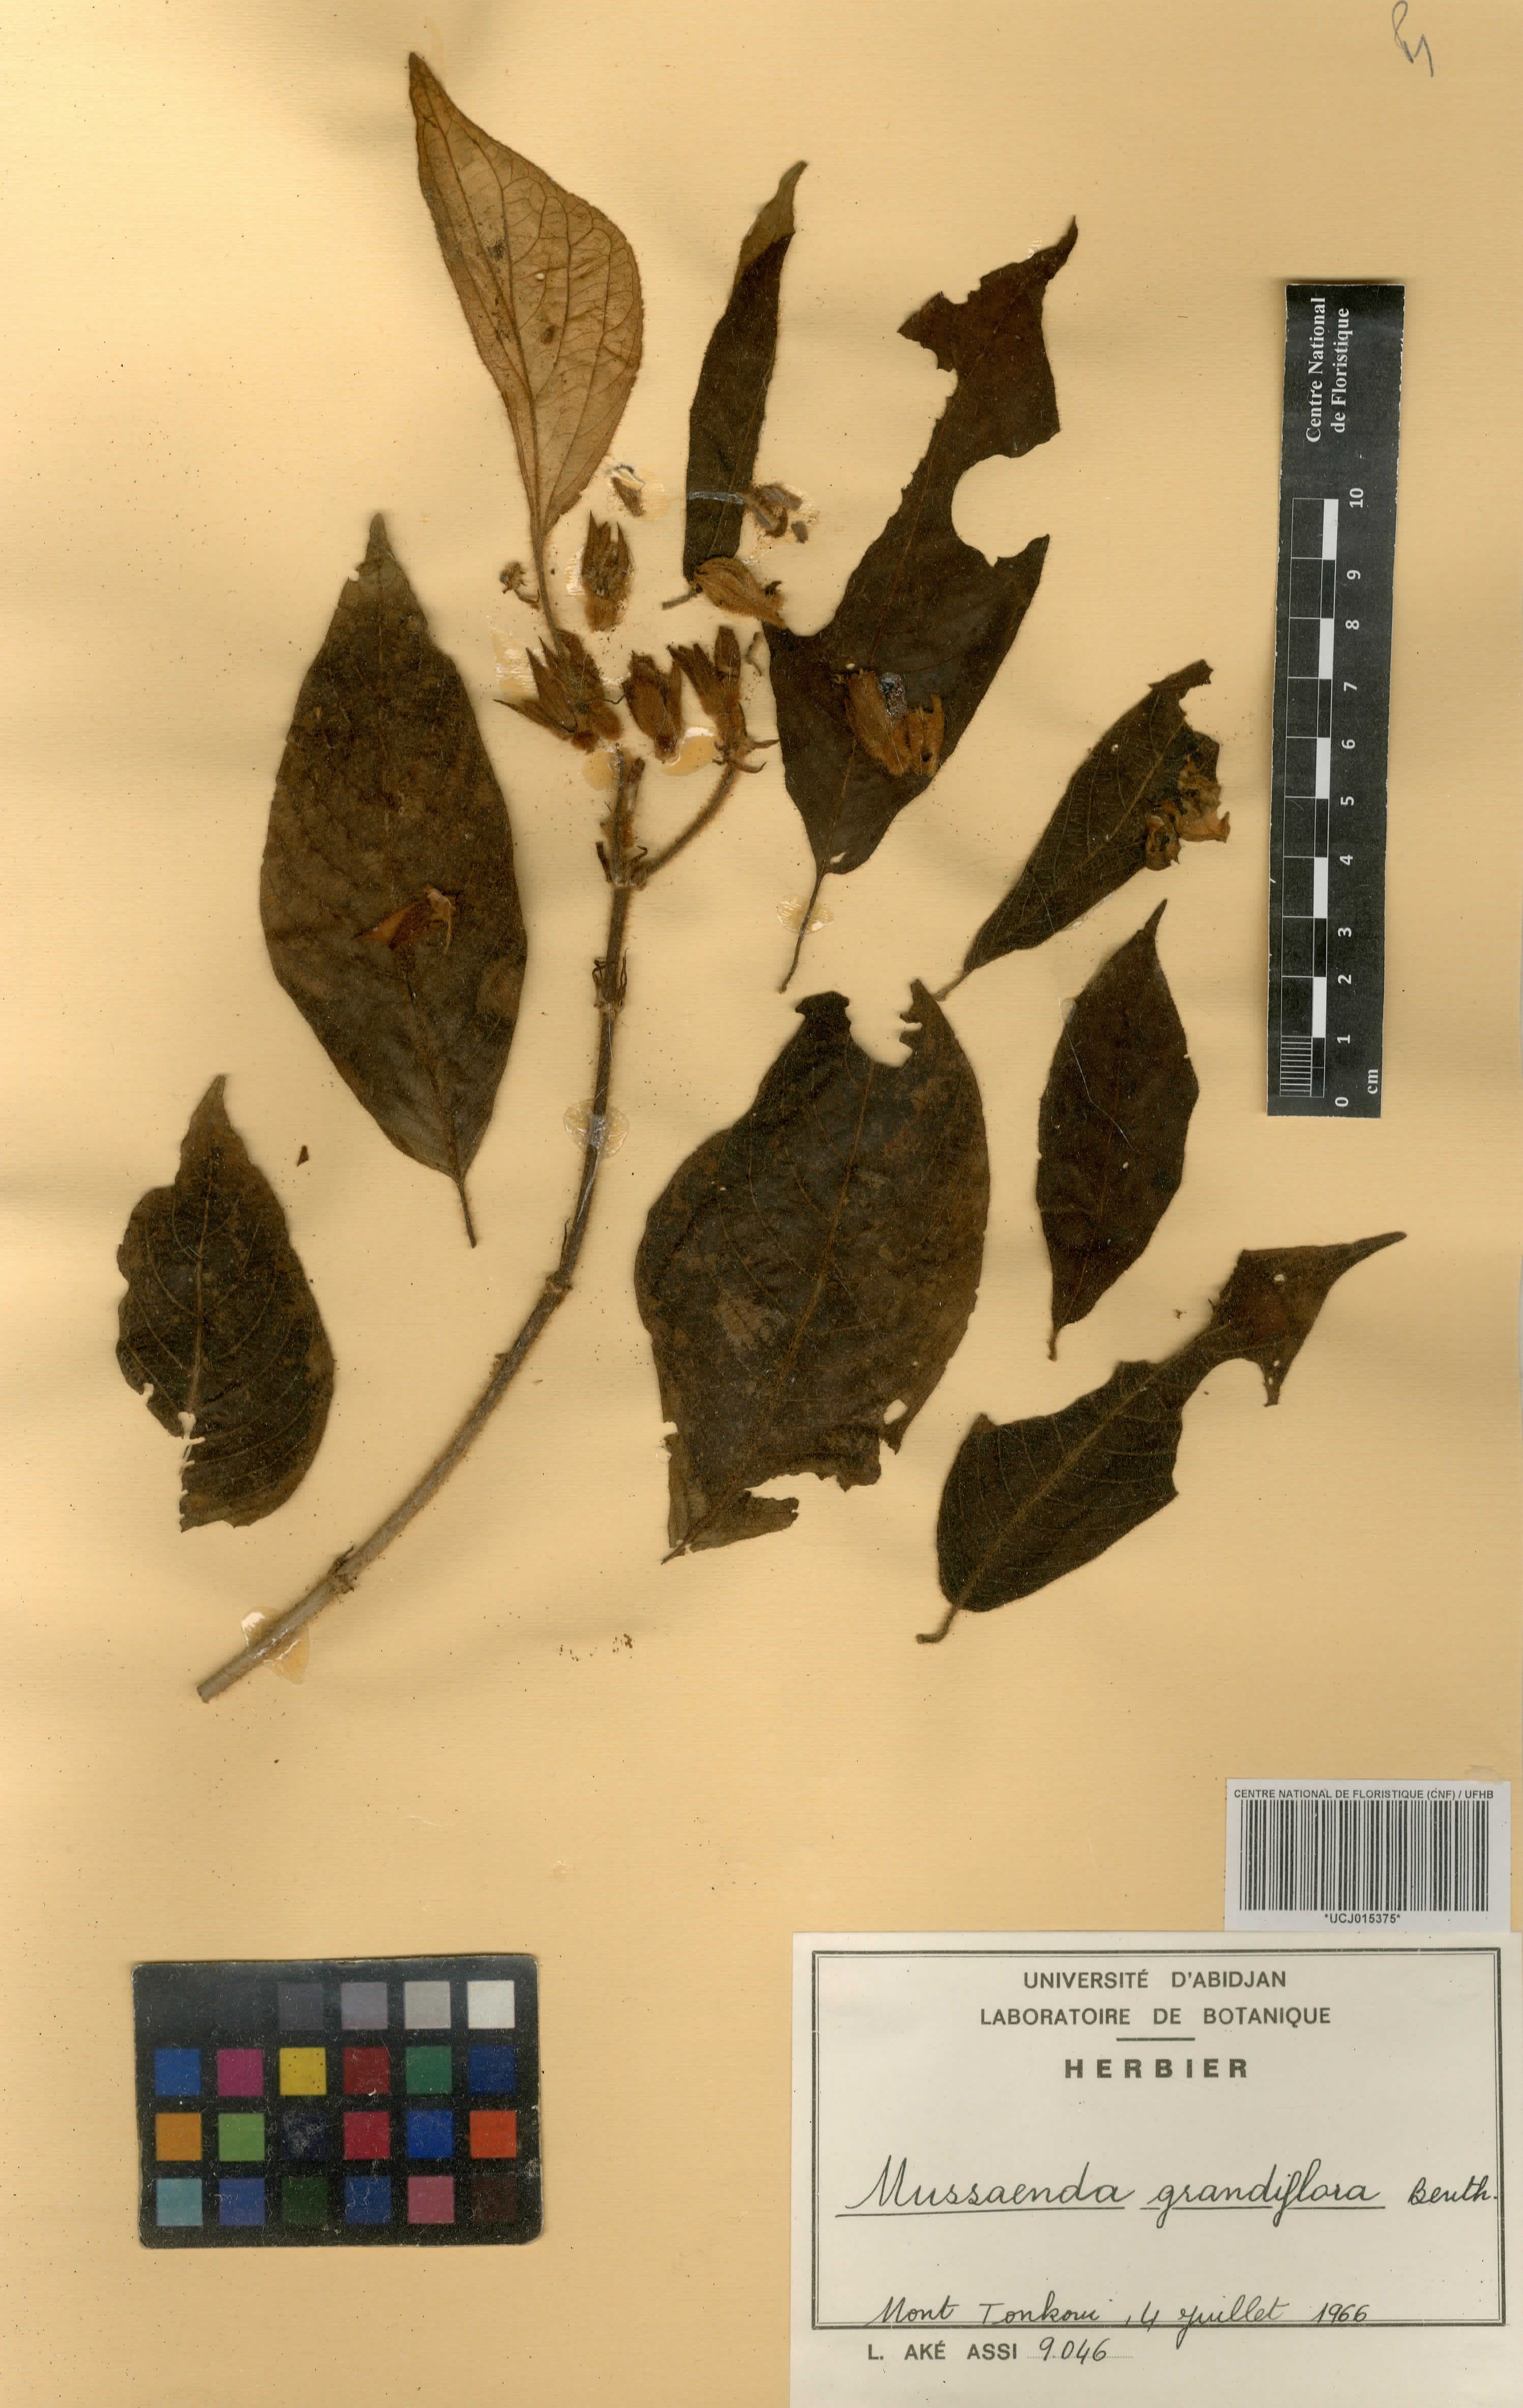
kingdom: Plantae
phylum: Tracheophyta
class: Magnoliopsida
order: Gentianales
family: Rubiaceae
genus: Mussaenda
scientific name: Mussaenda grandiflora
